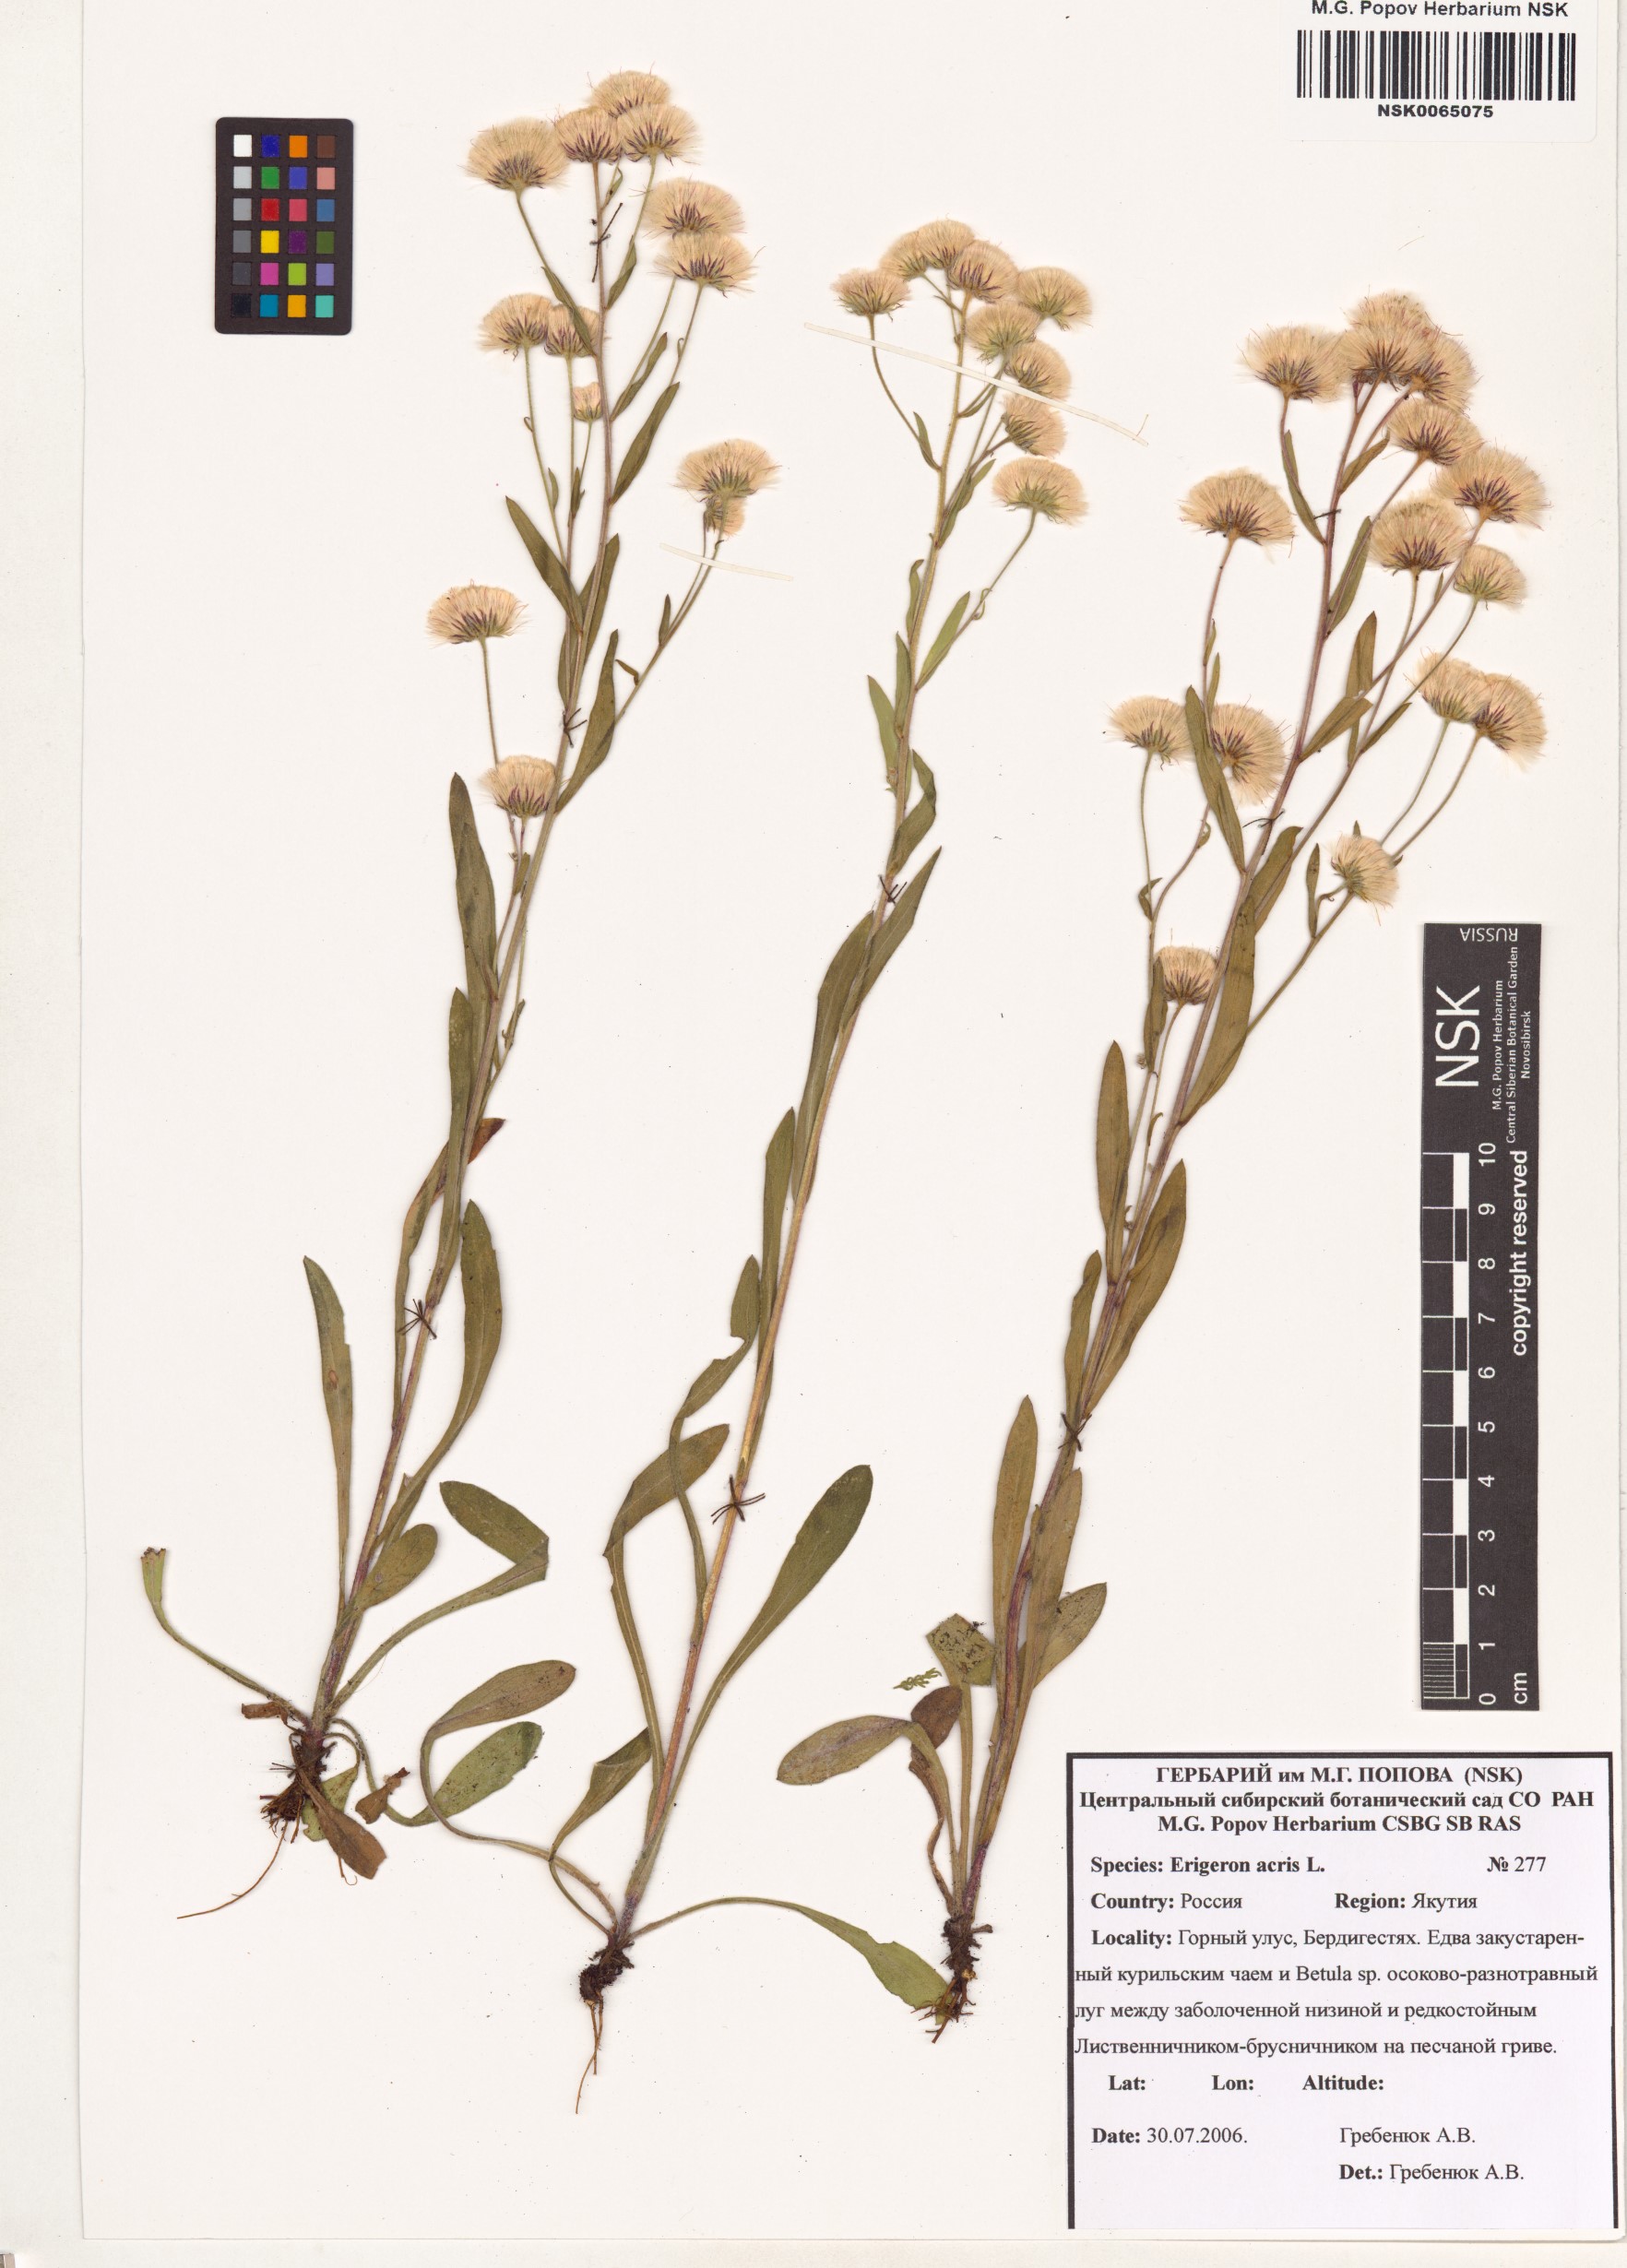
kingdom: Plantae
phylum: Tracheophyta
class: Magnoliopsida
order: Asterales
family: Asteraceae
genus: Erigeron
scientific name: Erigeron acris
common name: Blue fleabane
